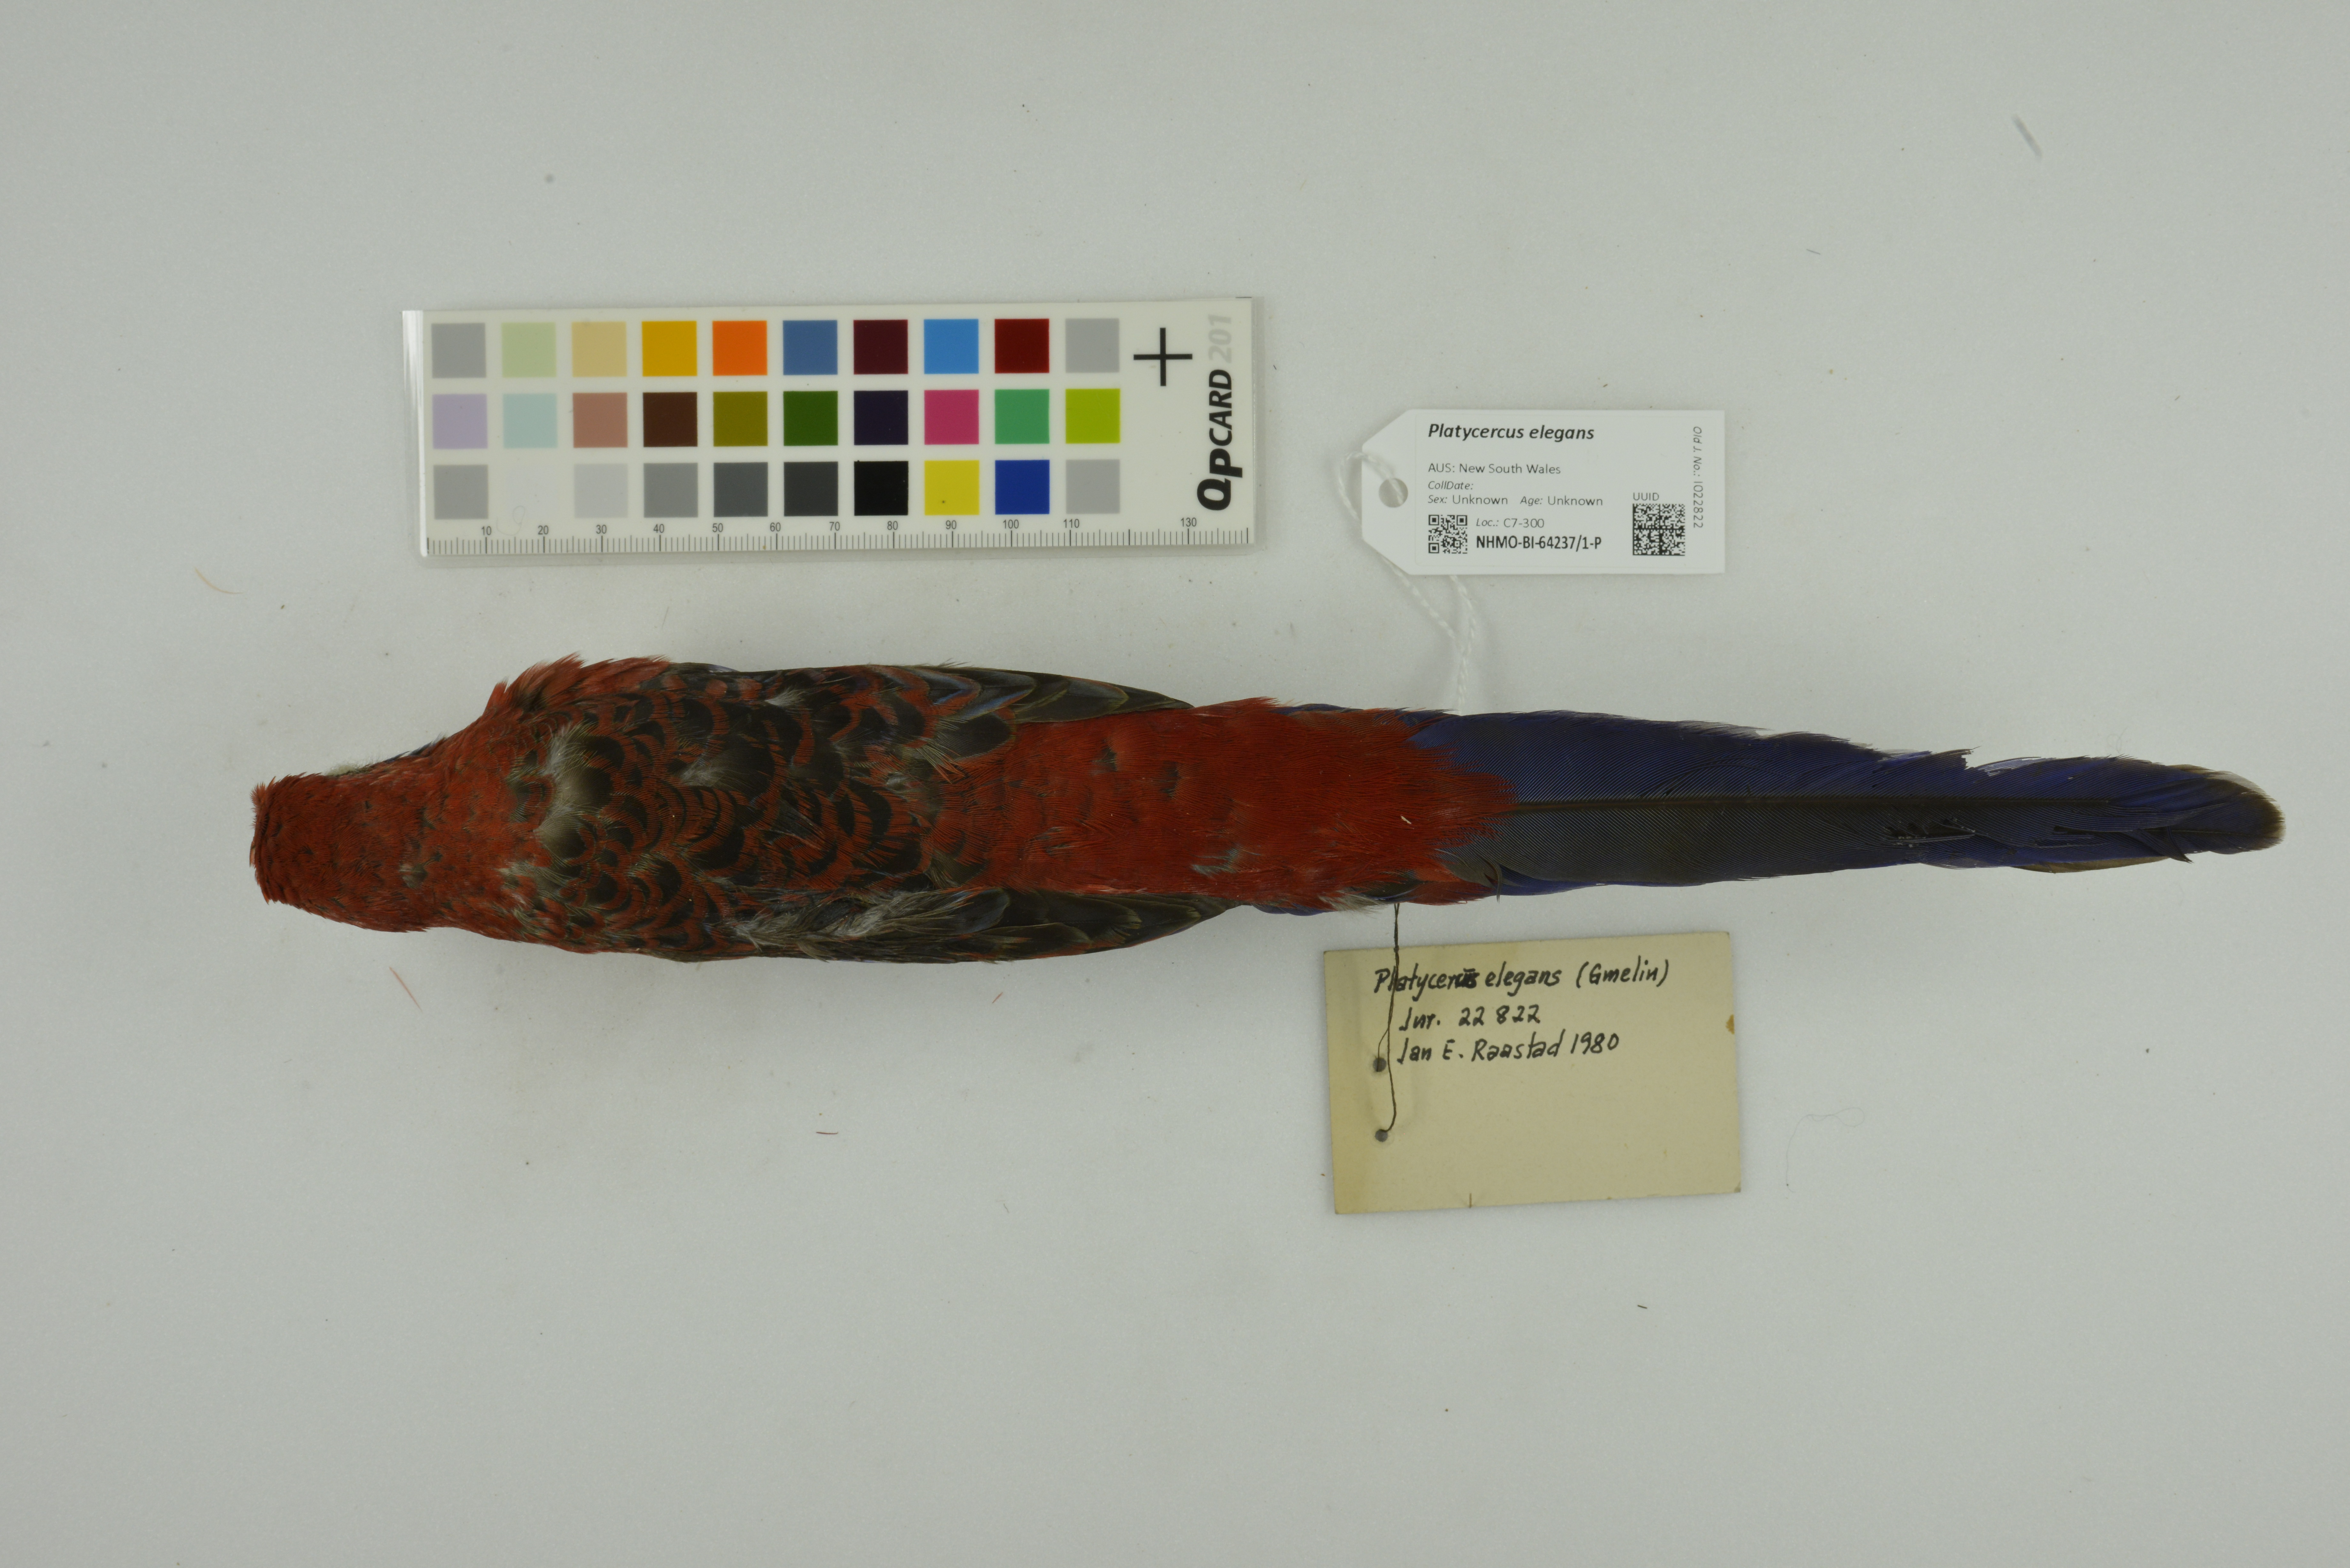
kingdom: Animalia
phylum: Chordata
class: Aves
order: Psittaciformes
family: Psittacidae
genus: Platycercus
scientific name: Platycercus elegans
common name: Crimson rosella
